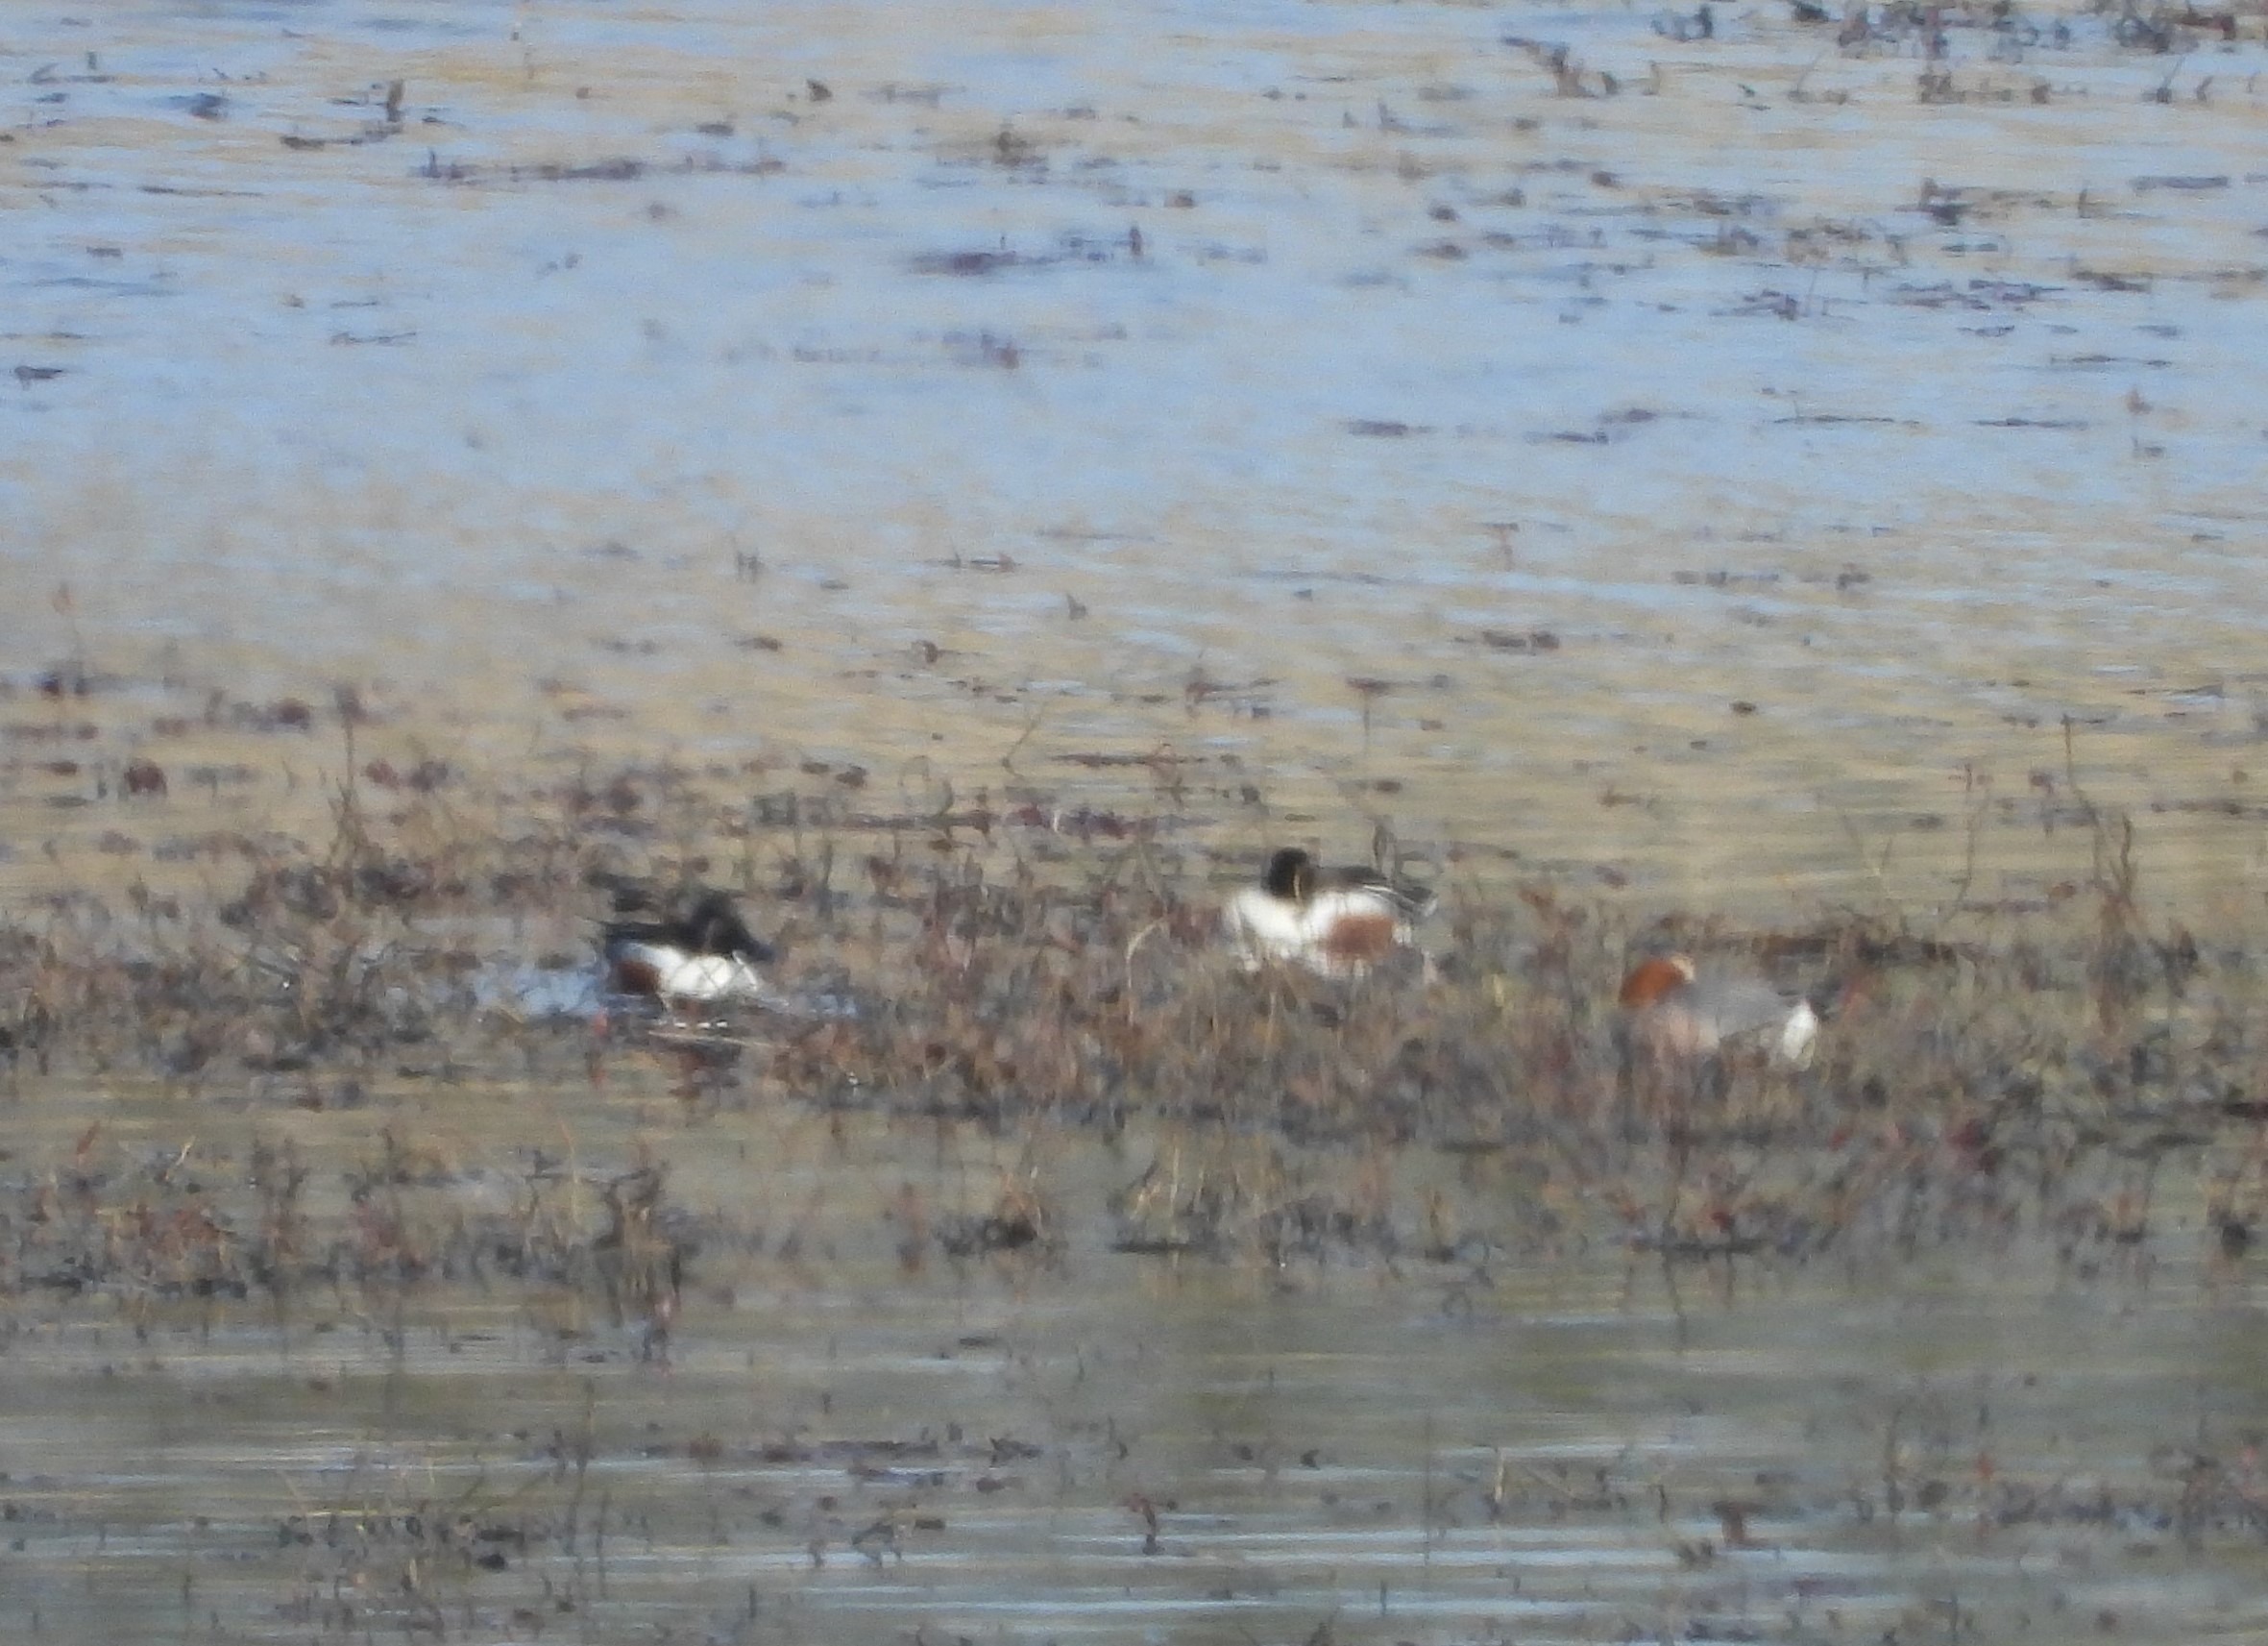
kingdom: Animalia
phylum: Chordata
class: Aves
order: Anseriformes
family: Anatidae
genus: Spatula
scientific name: Spatula clypeata
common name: Skeand
